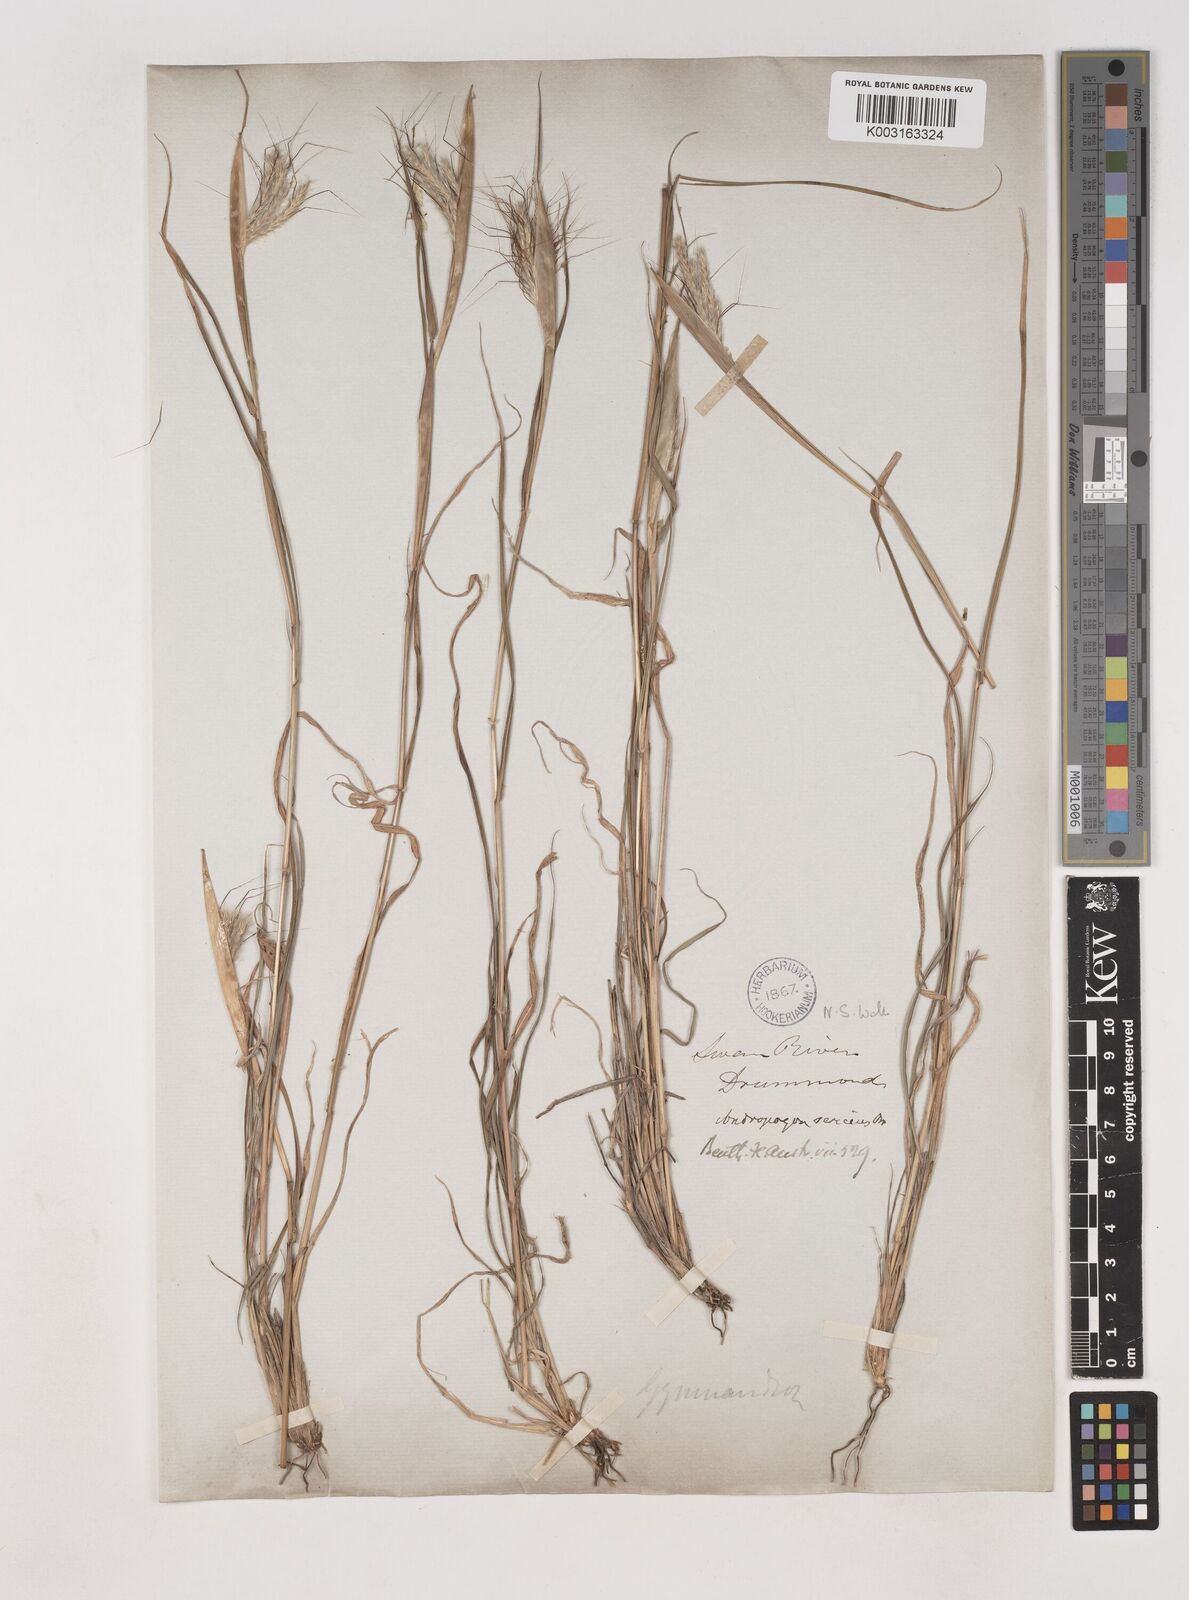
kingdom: Plantae
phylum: Tracheophyta
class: Liliopsida
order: Poales
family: Poaceae
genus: Dichanthium
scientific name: Dichanthium sericeum
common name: Silky bluestem
